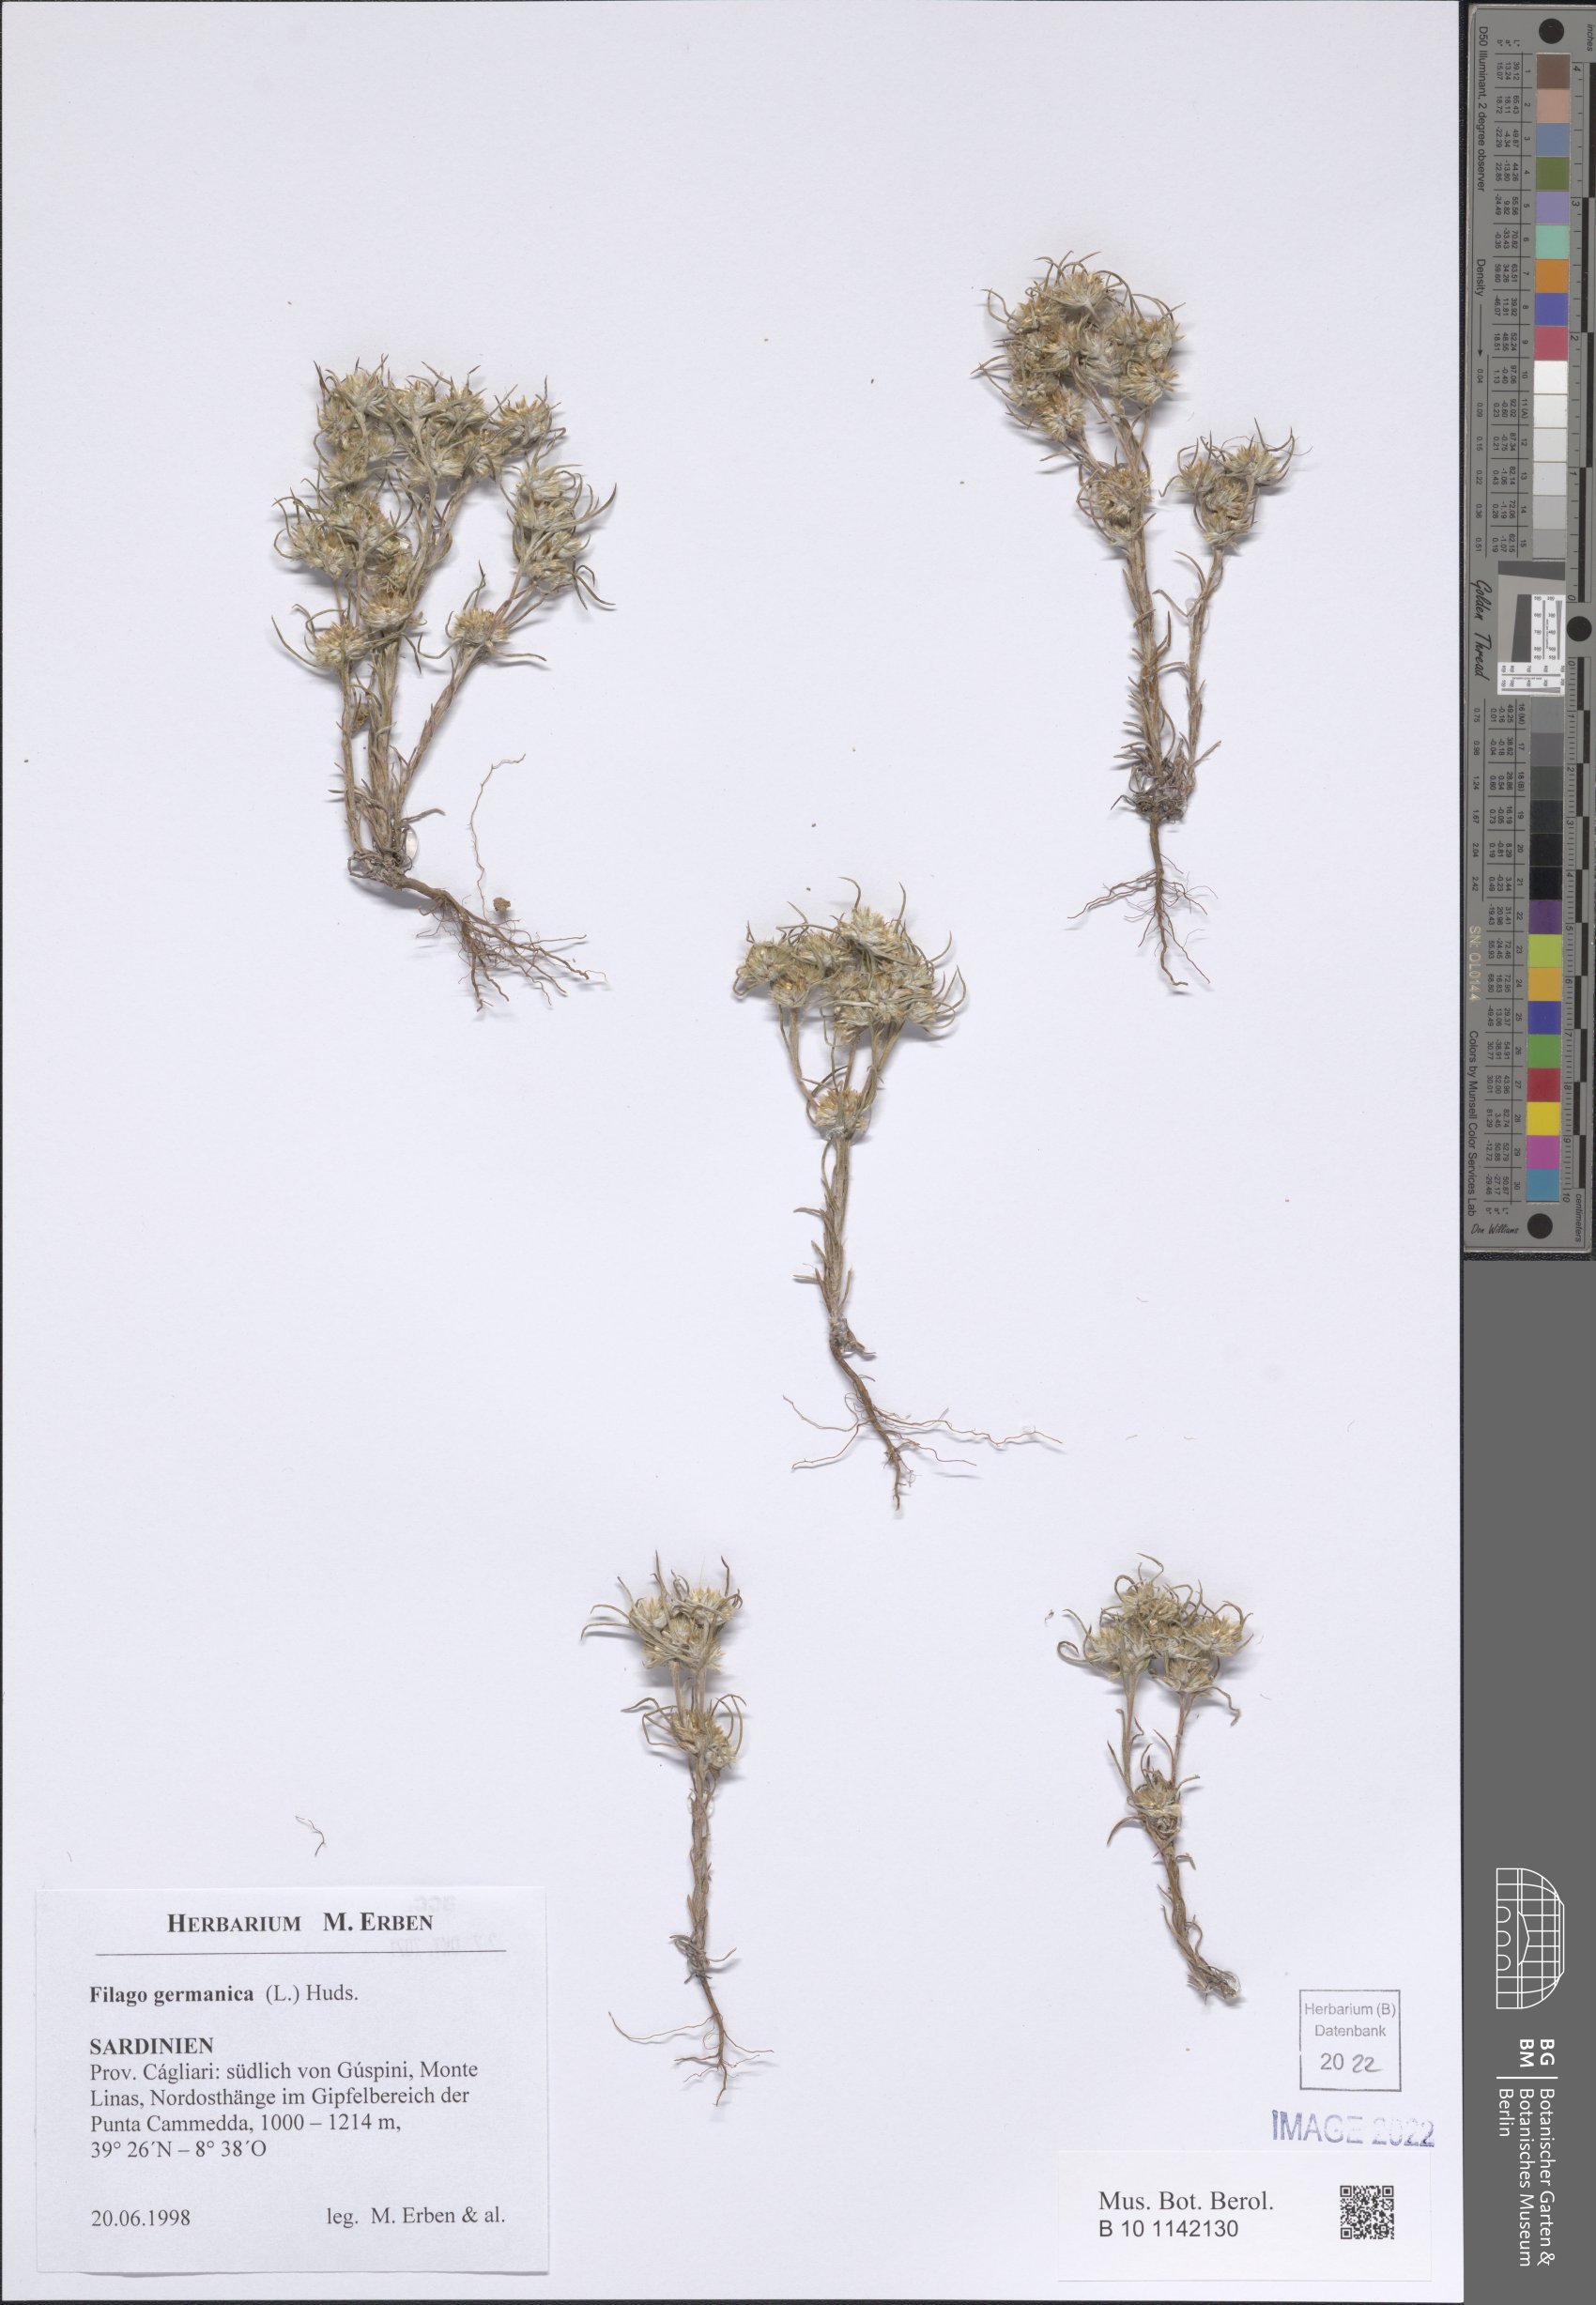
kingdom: Plantae
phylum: Tracheophyta
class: Magnoliopsida
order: Asterales
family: Asteraceae
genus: Filago
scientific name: Filago germanica
